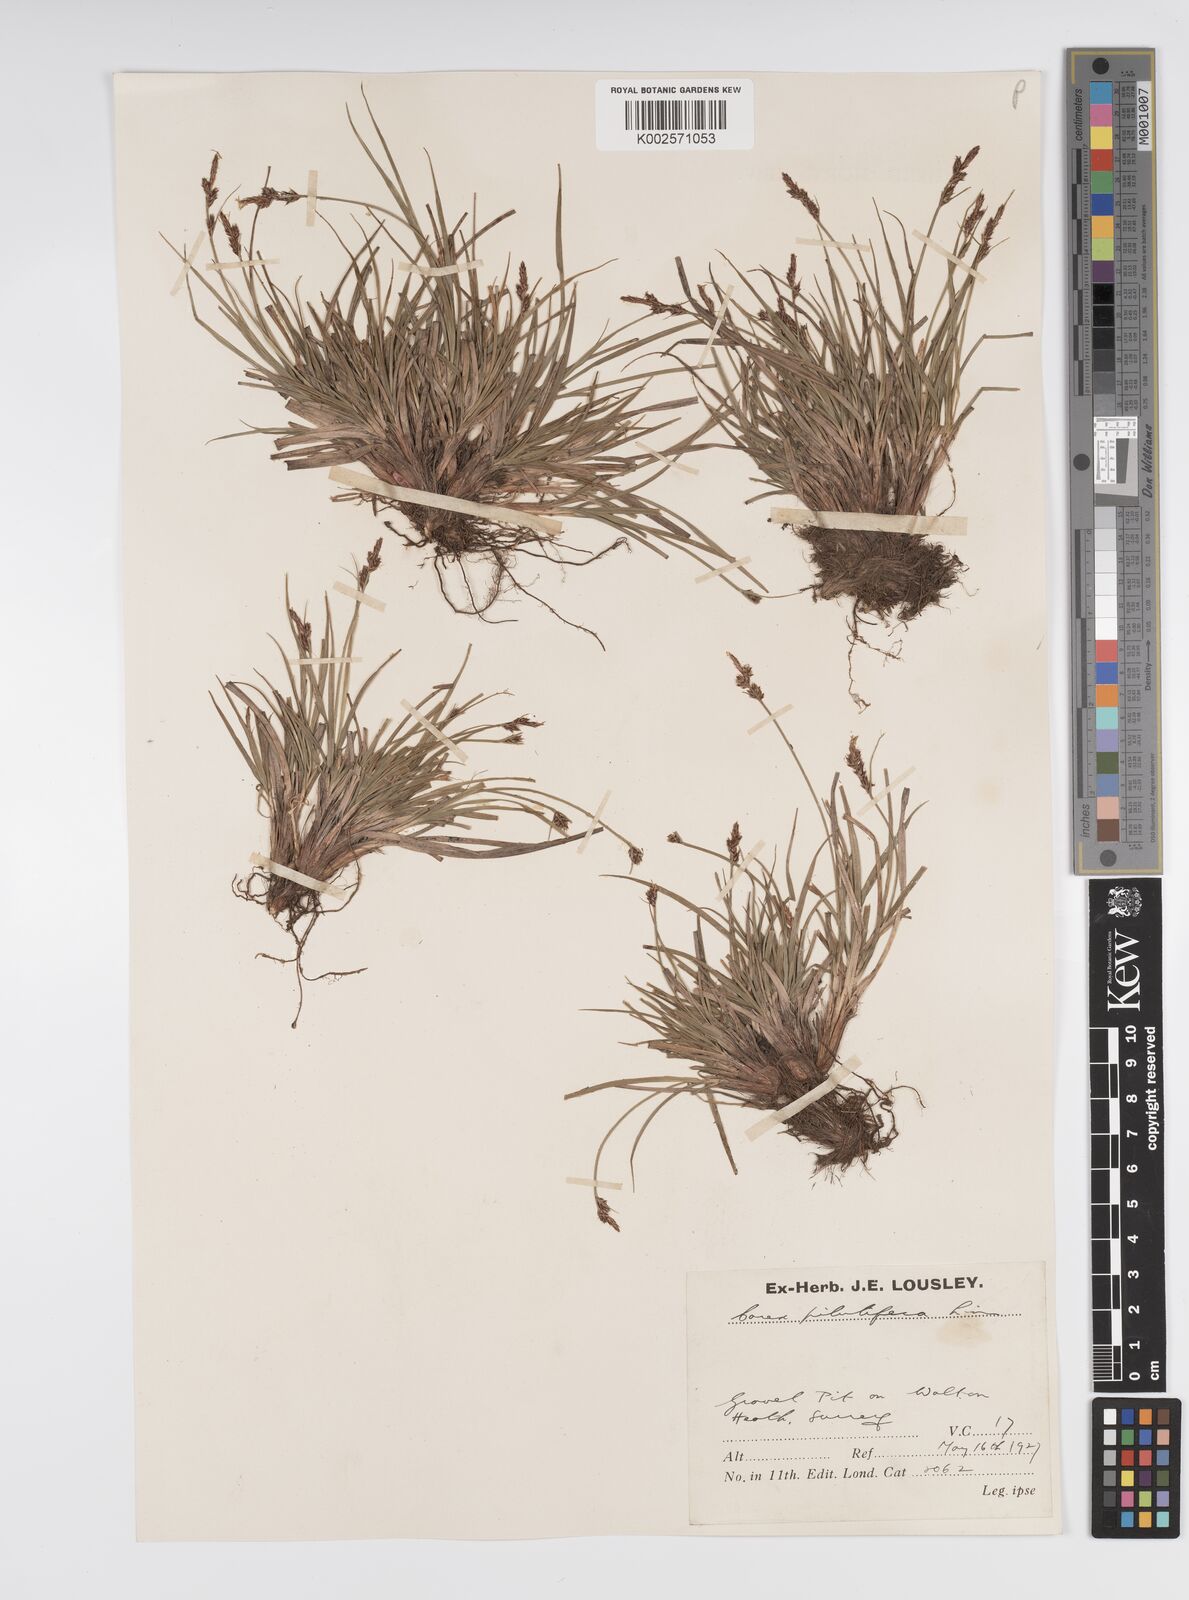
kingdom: Plantae
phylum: Tracheophyta
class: Liliopsida
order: Poales
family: Cyperaceae
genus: Carex
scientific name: Carex pilulifera
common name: Pill sedge
